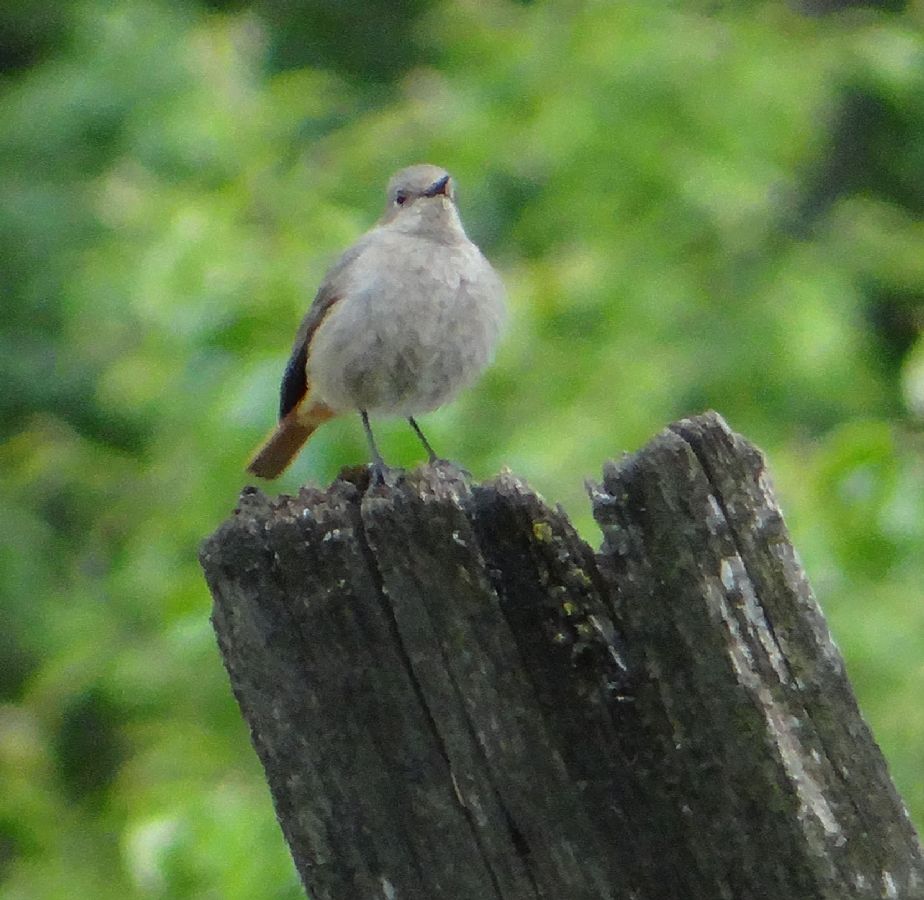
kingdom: Animalia
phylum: Chordata
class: Aves
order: Passeriformes
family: Muscicapidae
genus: Phoenicurus
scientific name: Phoenicurus ochruros
